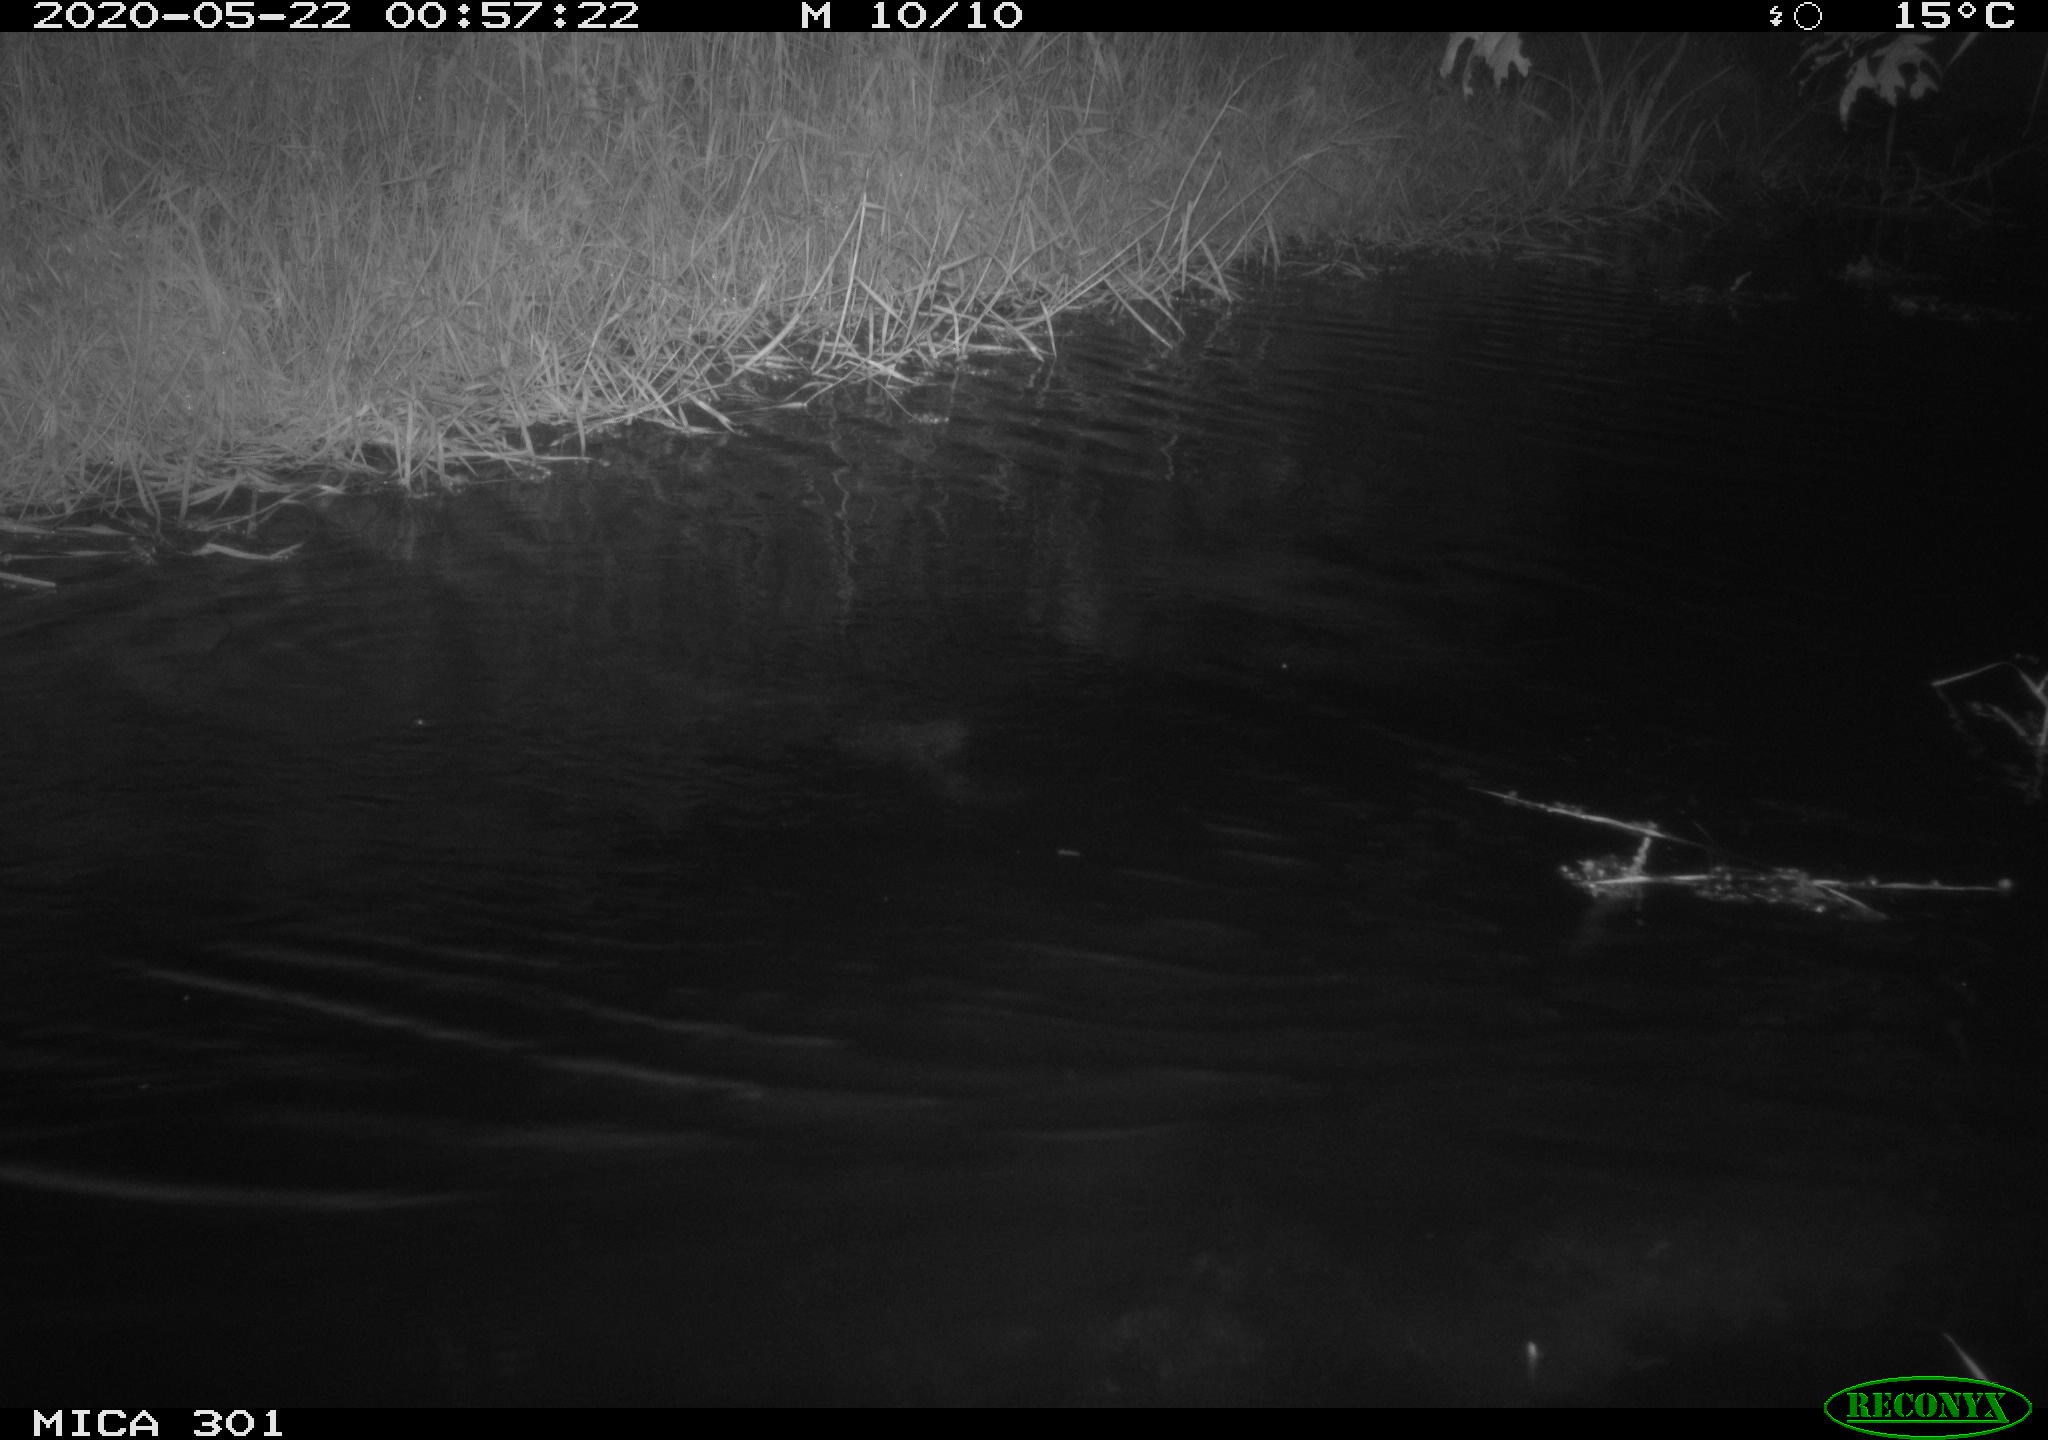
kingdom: Animalia
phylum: Chordata
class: Mammalia
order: Rodentia
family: Castoridae
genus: Castor
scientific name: Castor fiber
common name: Eurasian beaver
